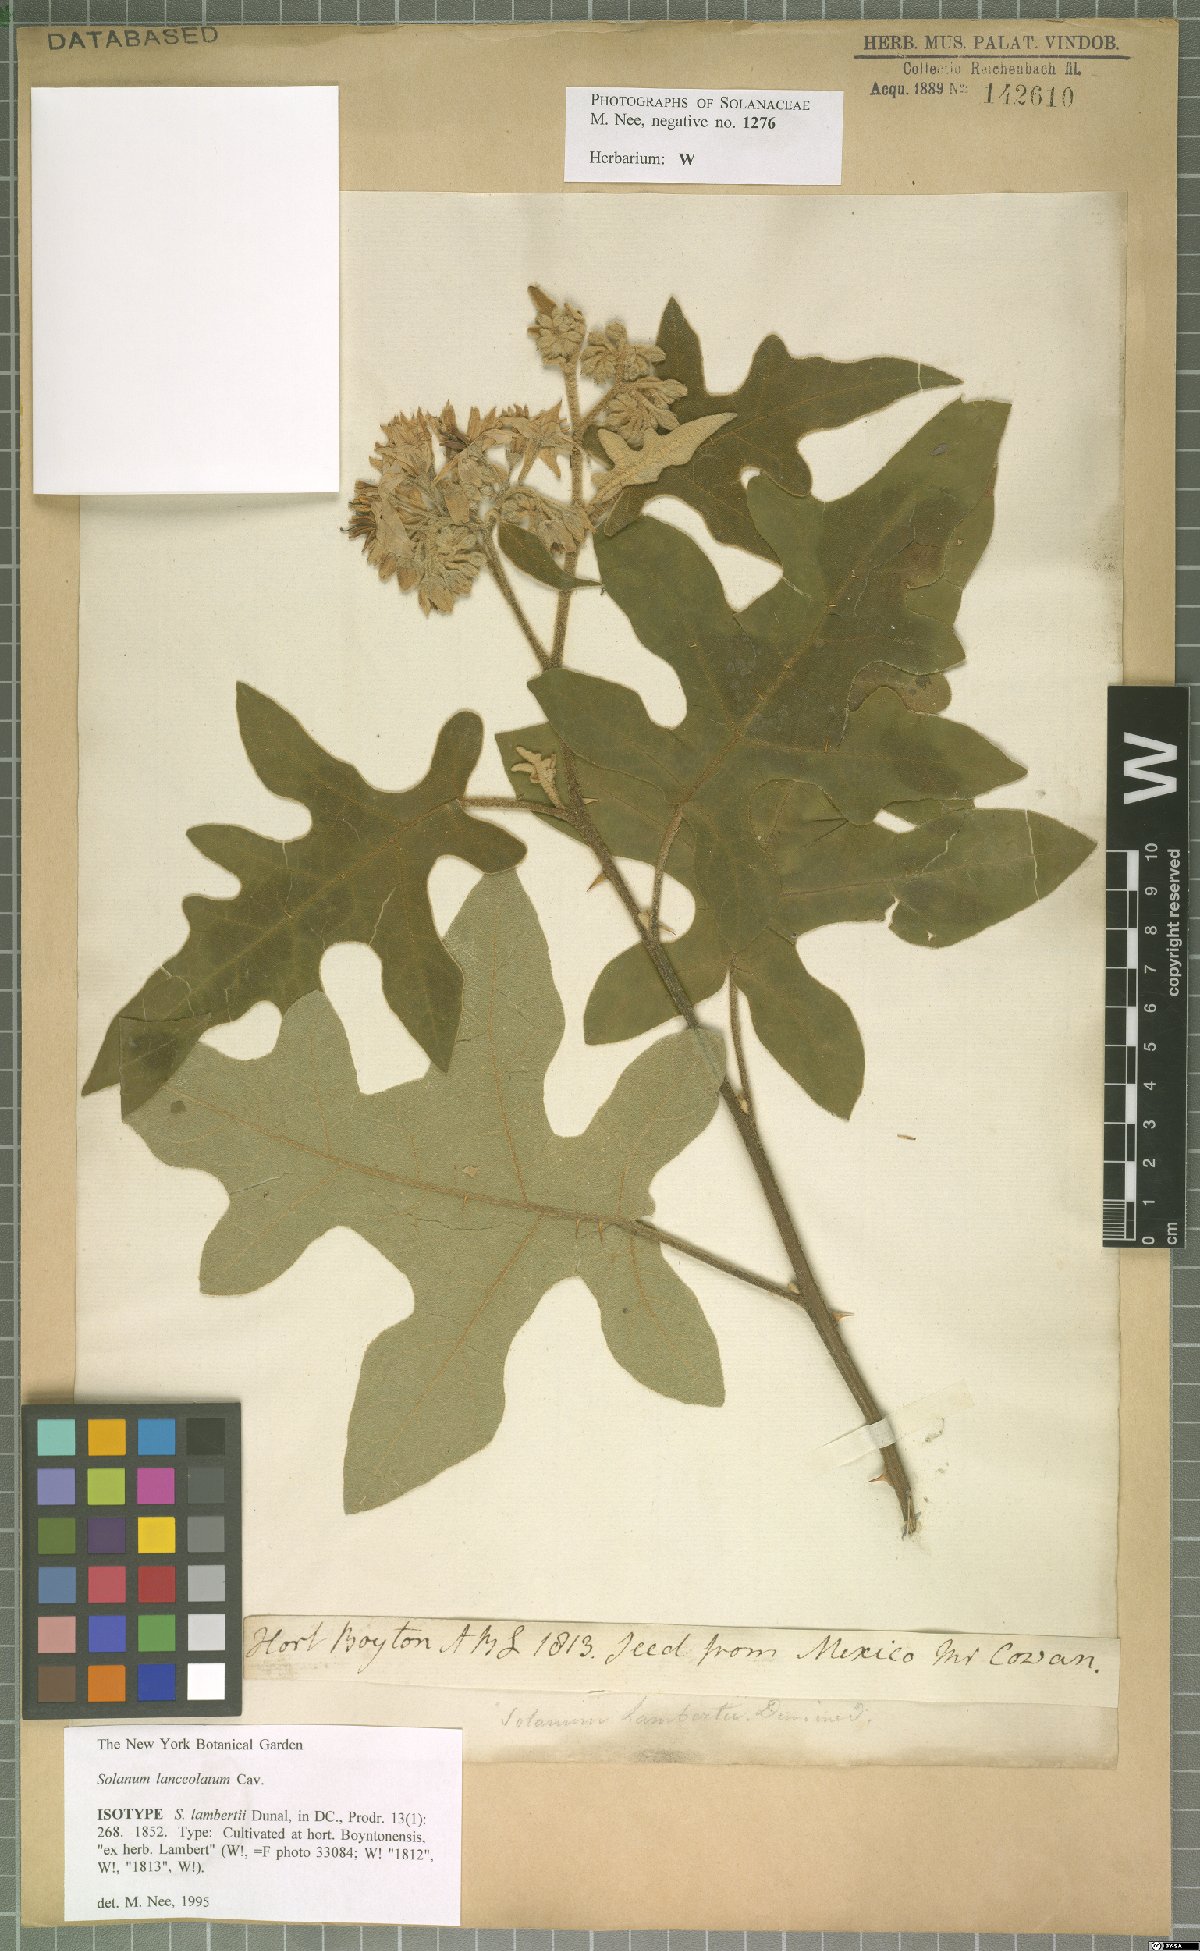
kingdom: Plantae
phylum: Tracheophyta
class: Magnoliopsida
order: Solanales
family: Solanaceae
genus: Solanum
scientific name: Solanum lanceolatum
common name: Orangeberry nightshade
